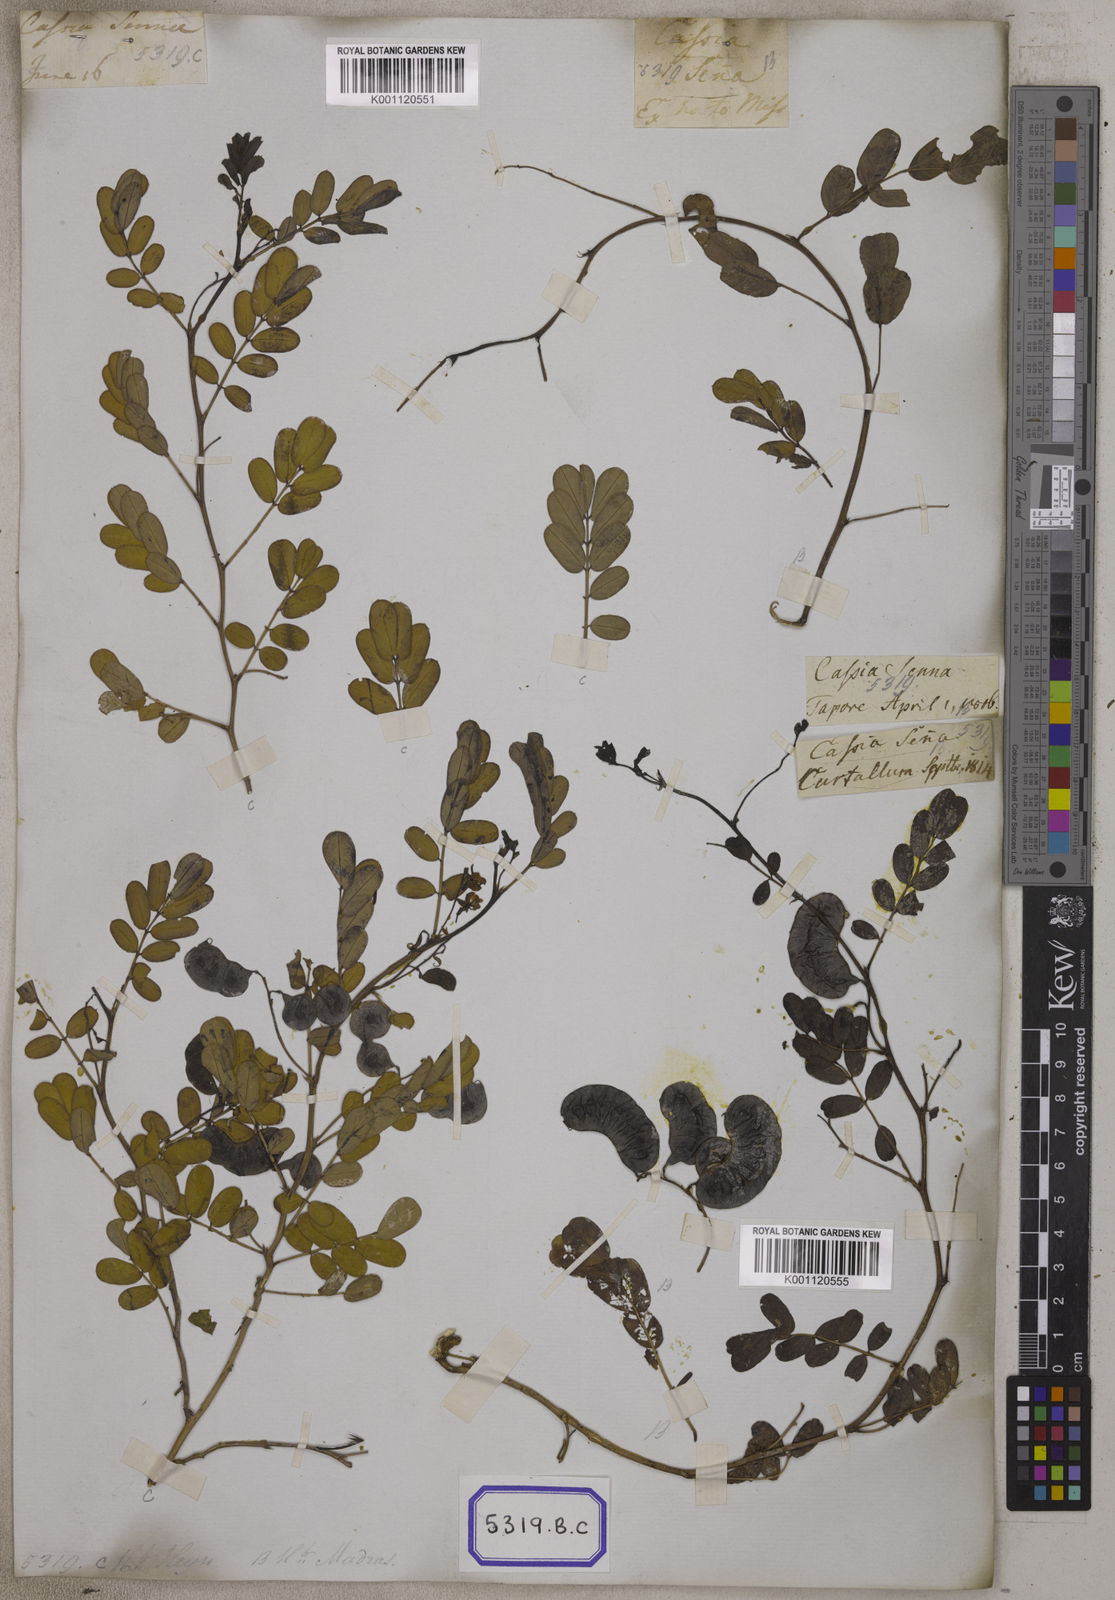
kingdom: Plantae
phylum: Tracheophyta
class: Magnoliopsida
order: Fabales
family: Fabaceae
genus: Senna
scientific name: Senna italica
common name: Port royal senna
